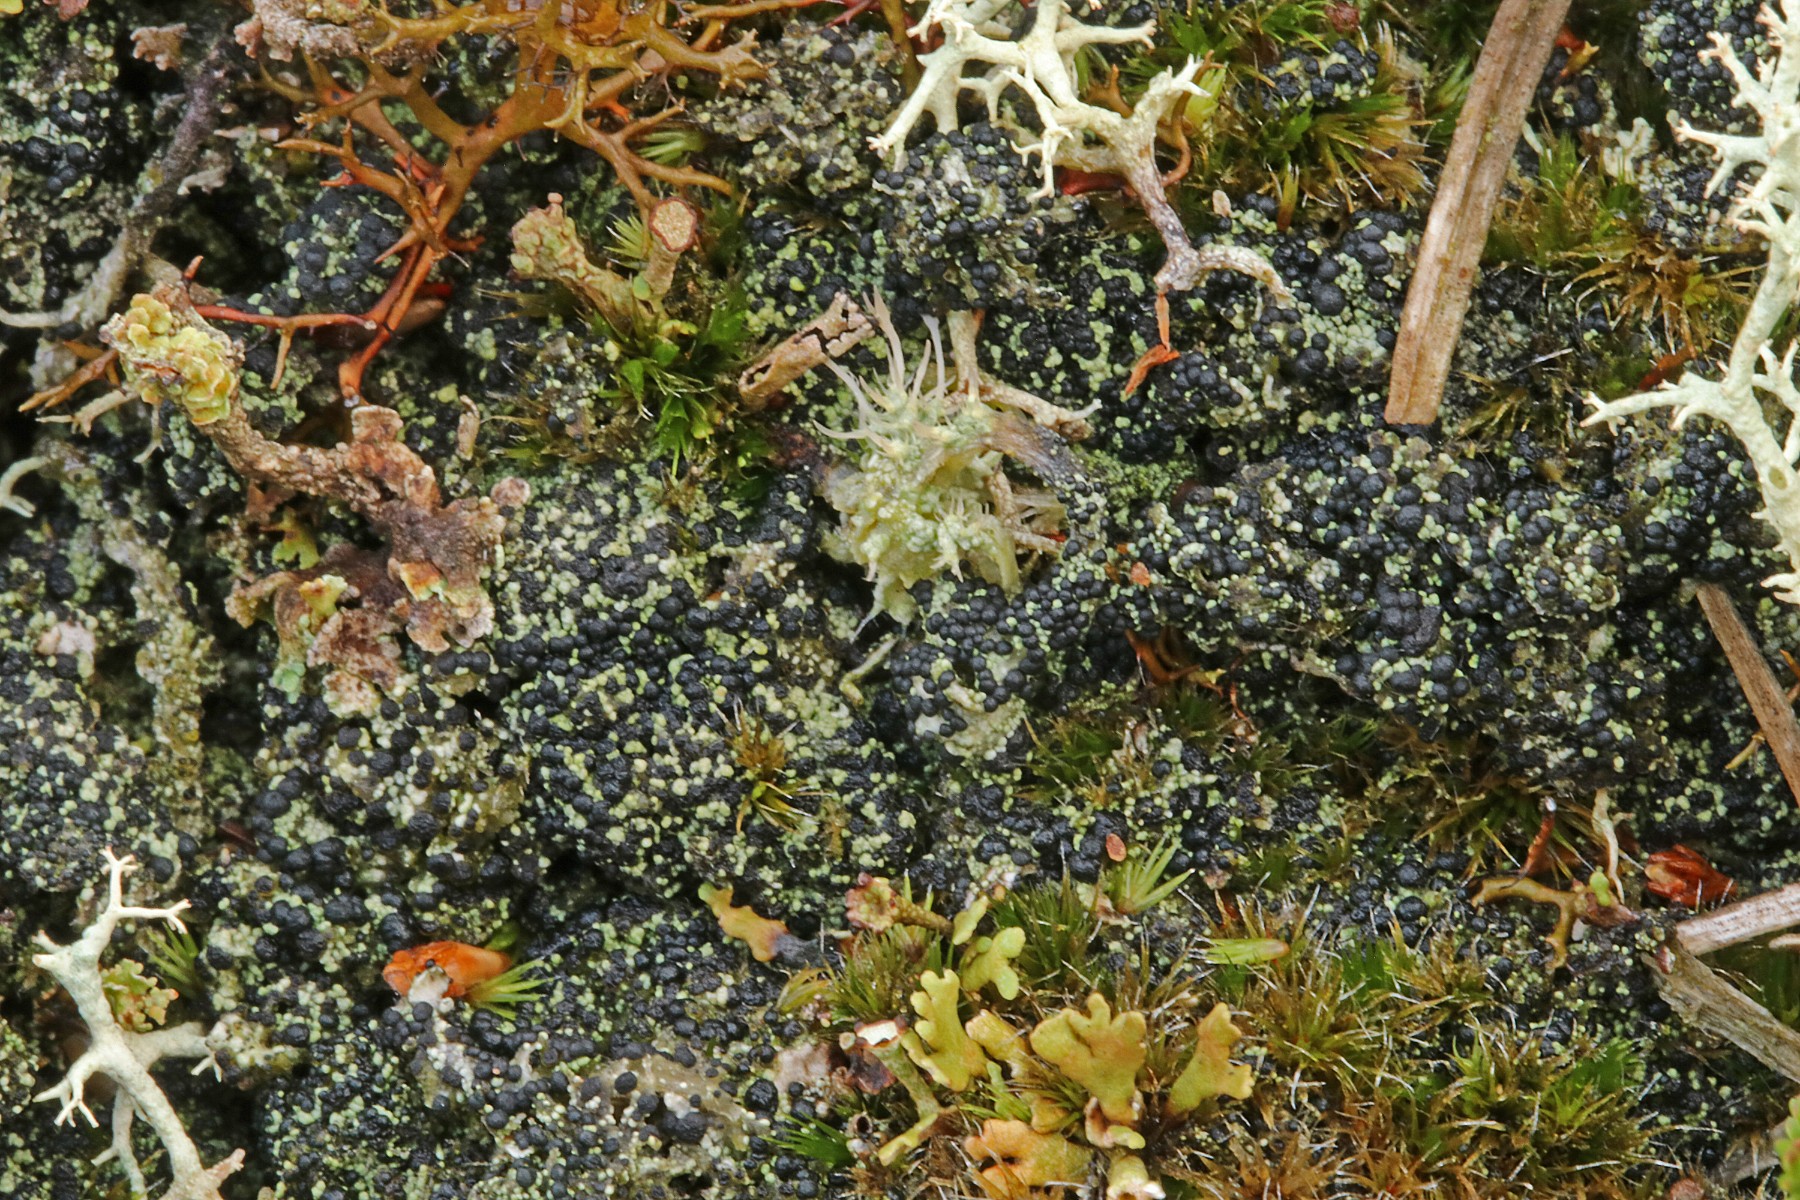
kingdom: Fungi
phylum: Ascomycota
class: Lecanoromycetes
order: Lecanorales
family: Byssolomataceae
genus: Micarea
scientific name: Micarea lignaria
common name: tørve-knaplav
